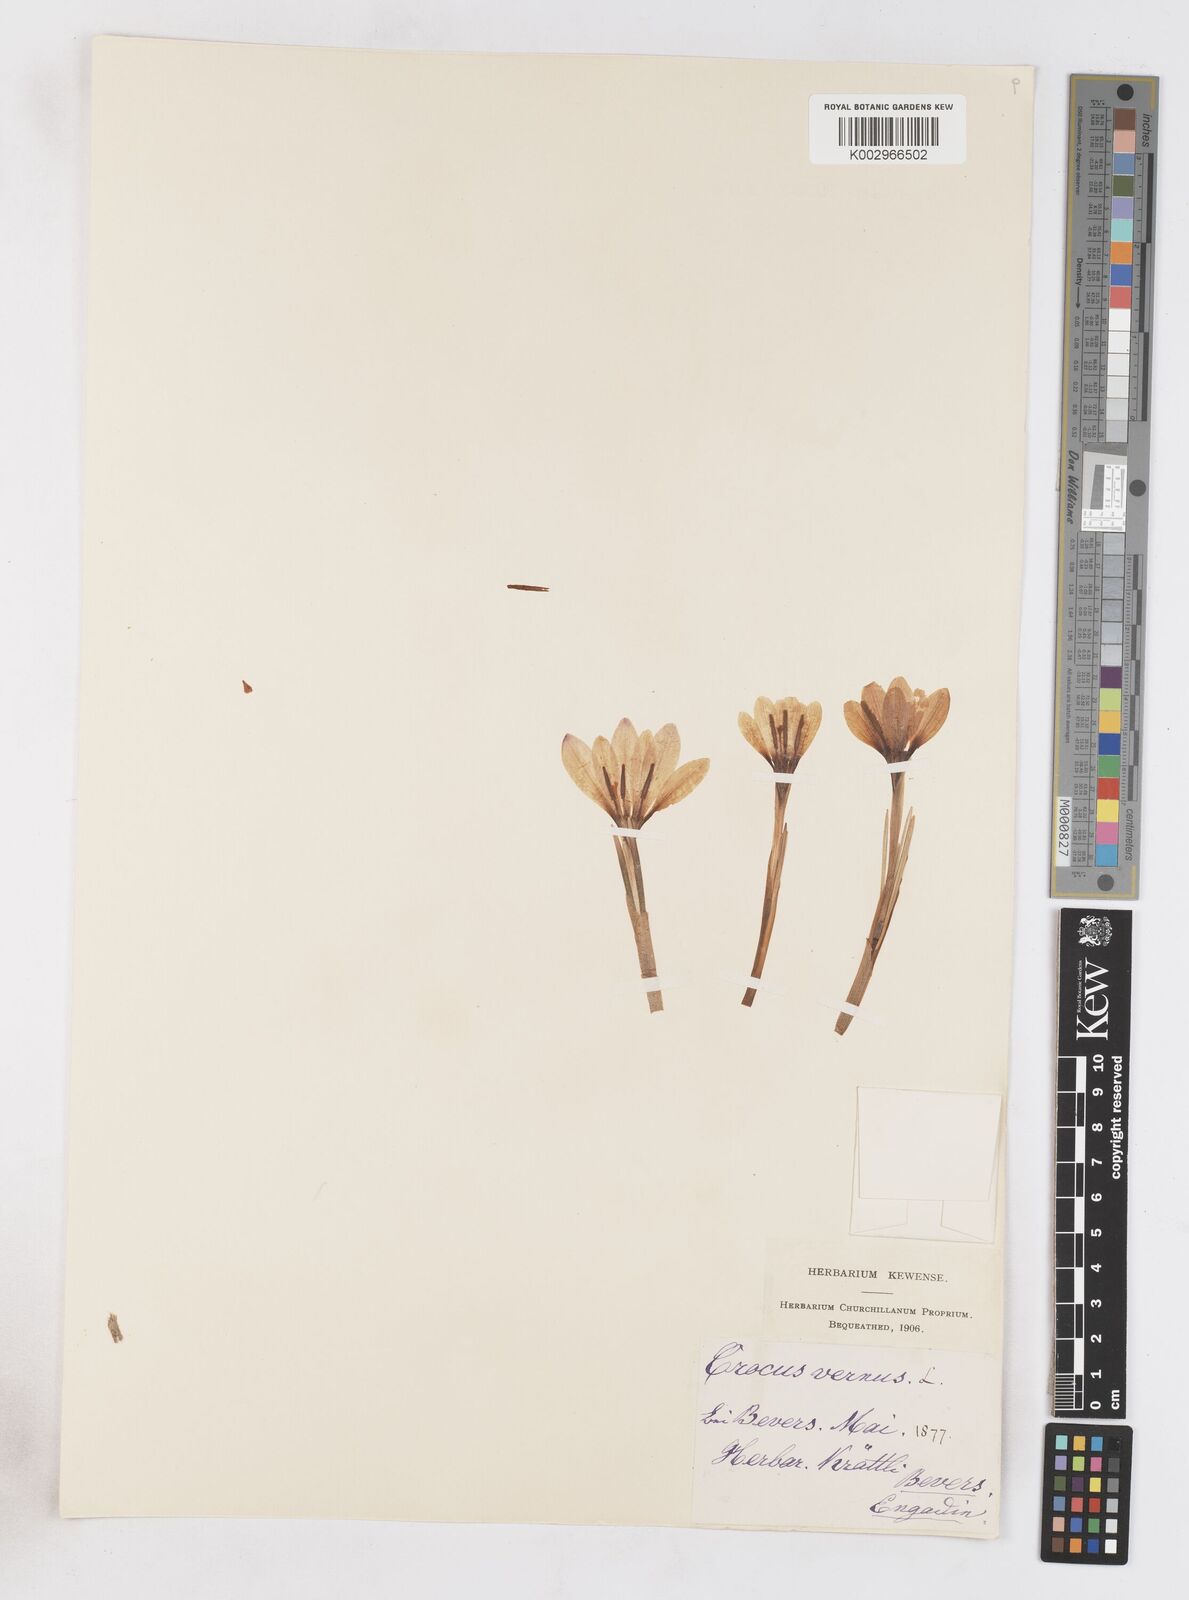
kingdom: Plantae
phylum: Tracheophyta
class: Liliopsida
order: Asparagales
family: Iridaceae
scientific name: Iridaceae
